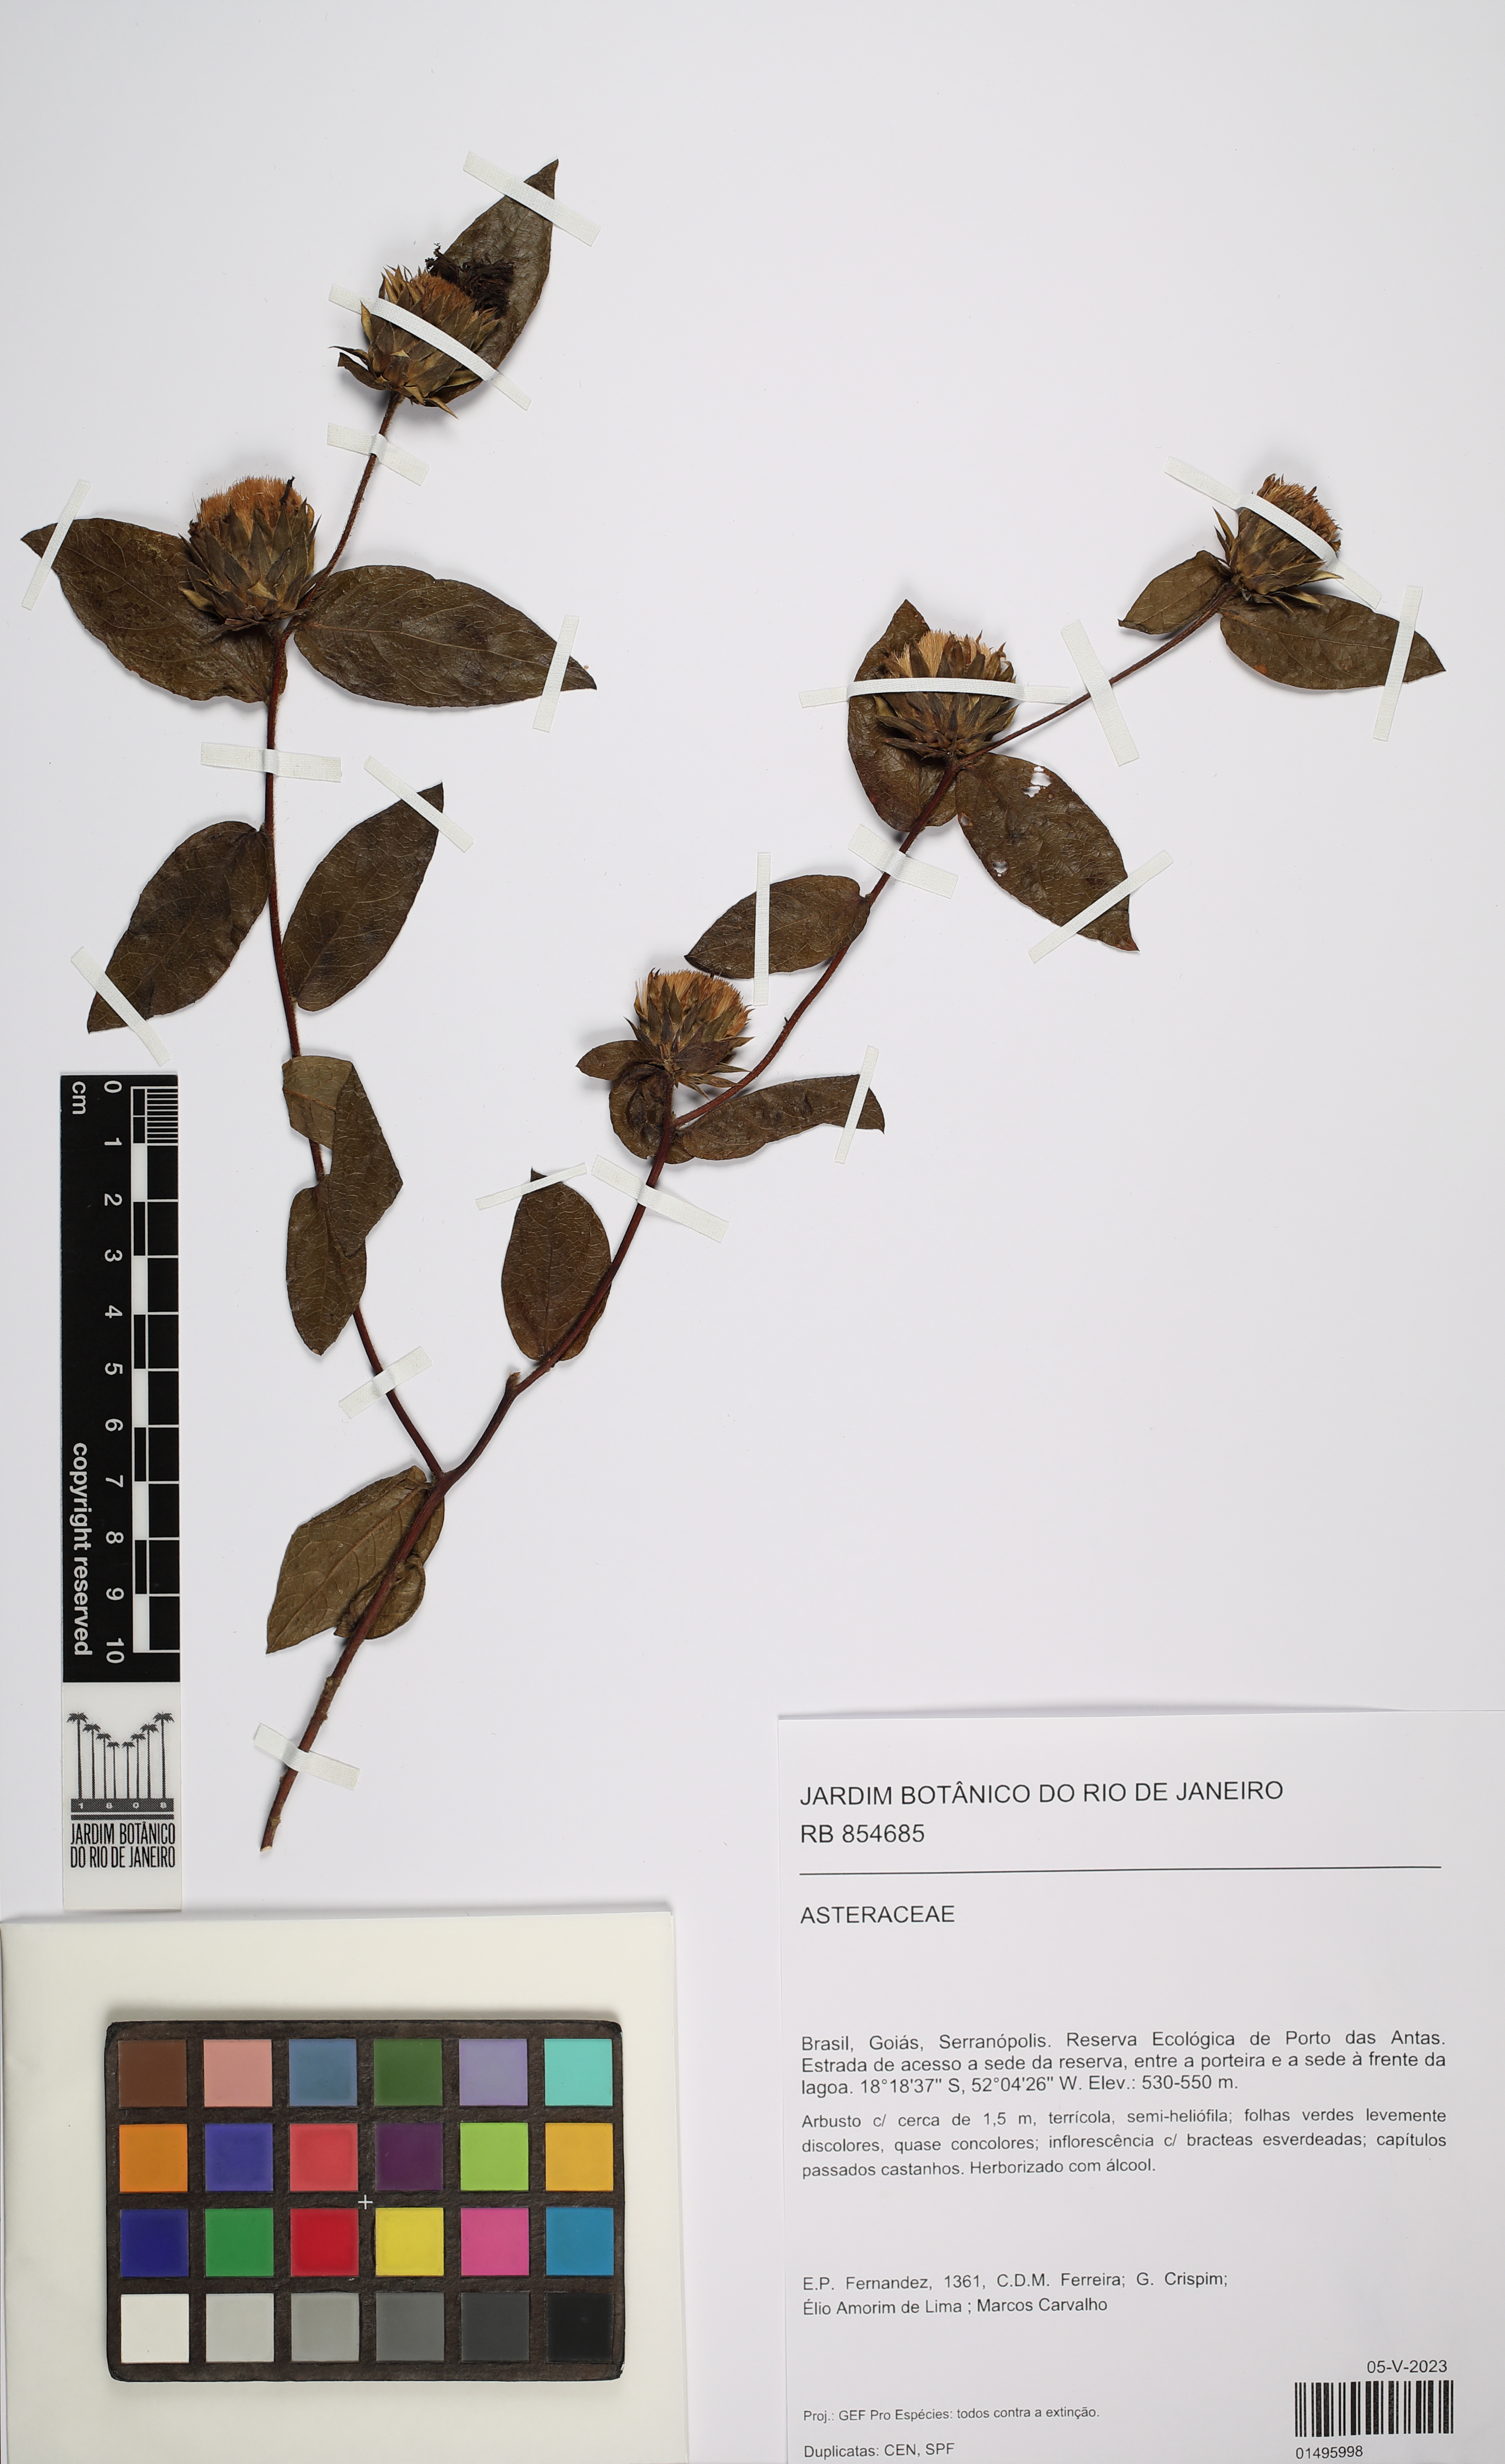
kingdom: Plantae
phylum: Tracheophyta
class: Magnoliopsida
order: Asterales
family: Asteraceae
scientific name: Asteraceae
